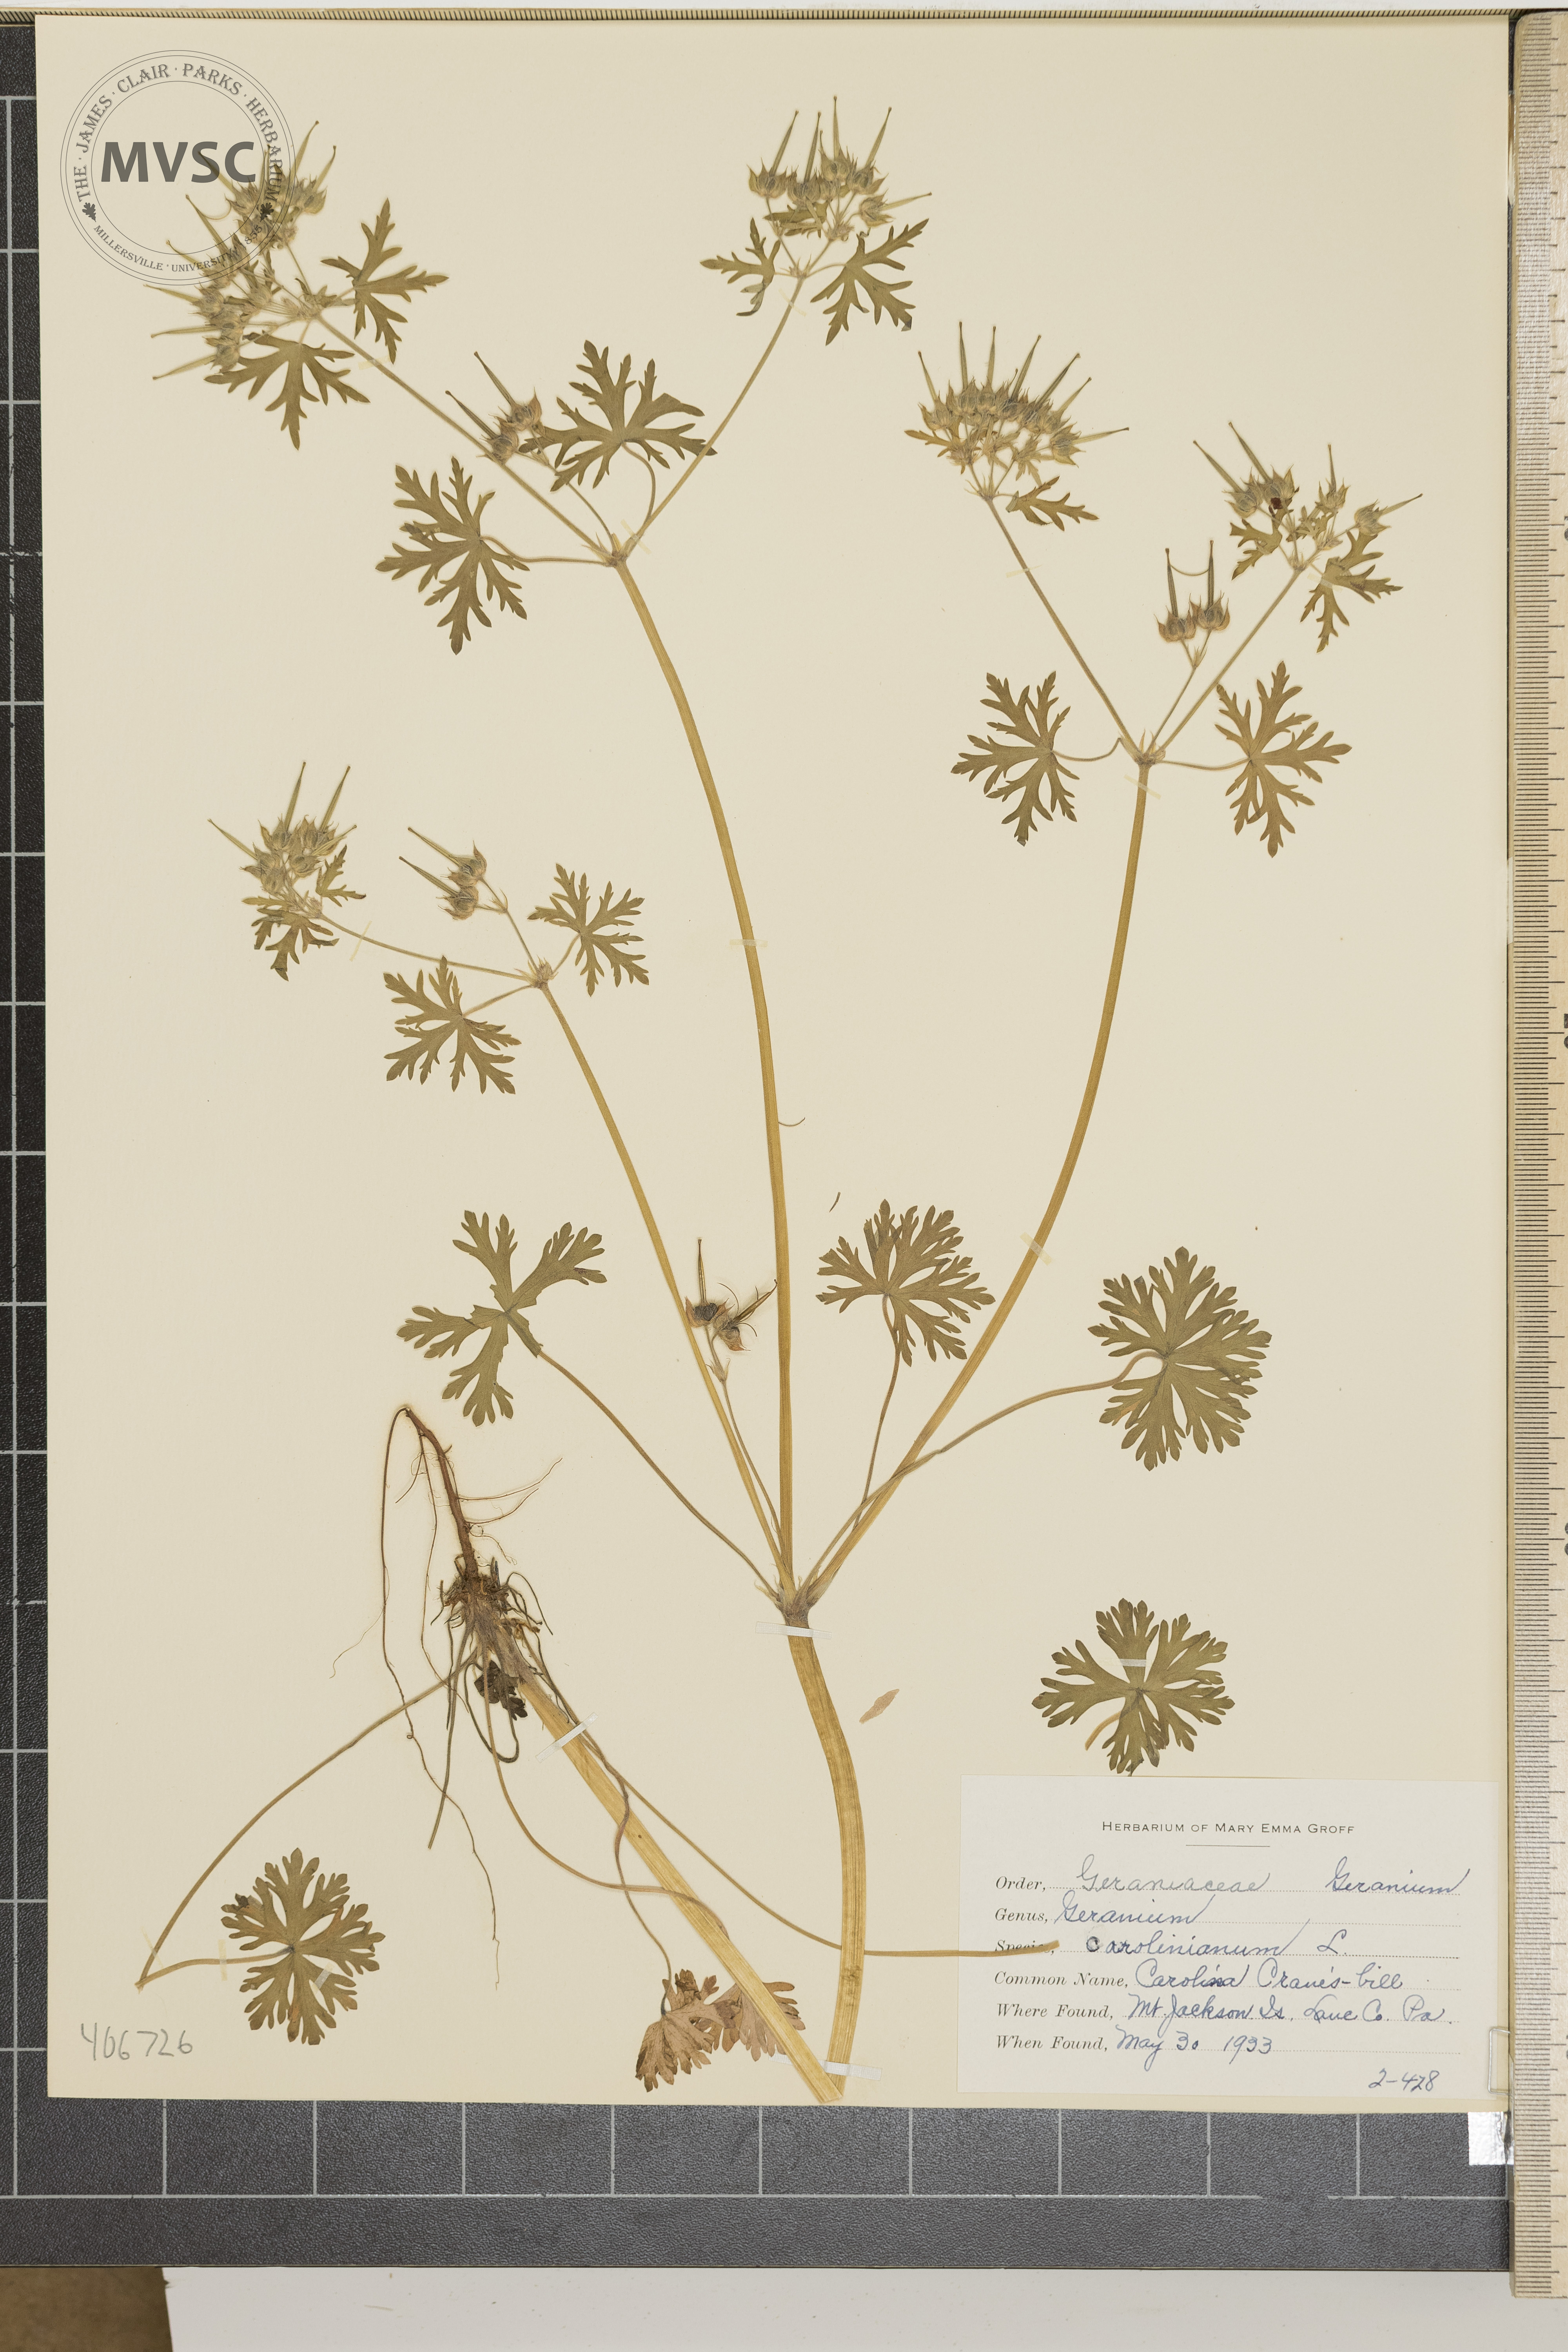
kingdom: Plantae
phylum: Tracheophyta
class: Magnoliopsida
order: Geraniales
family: Geraniaceae
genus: Geranium
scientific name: Geranium carolinianum
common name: Carolina crane's-bill
